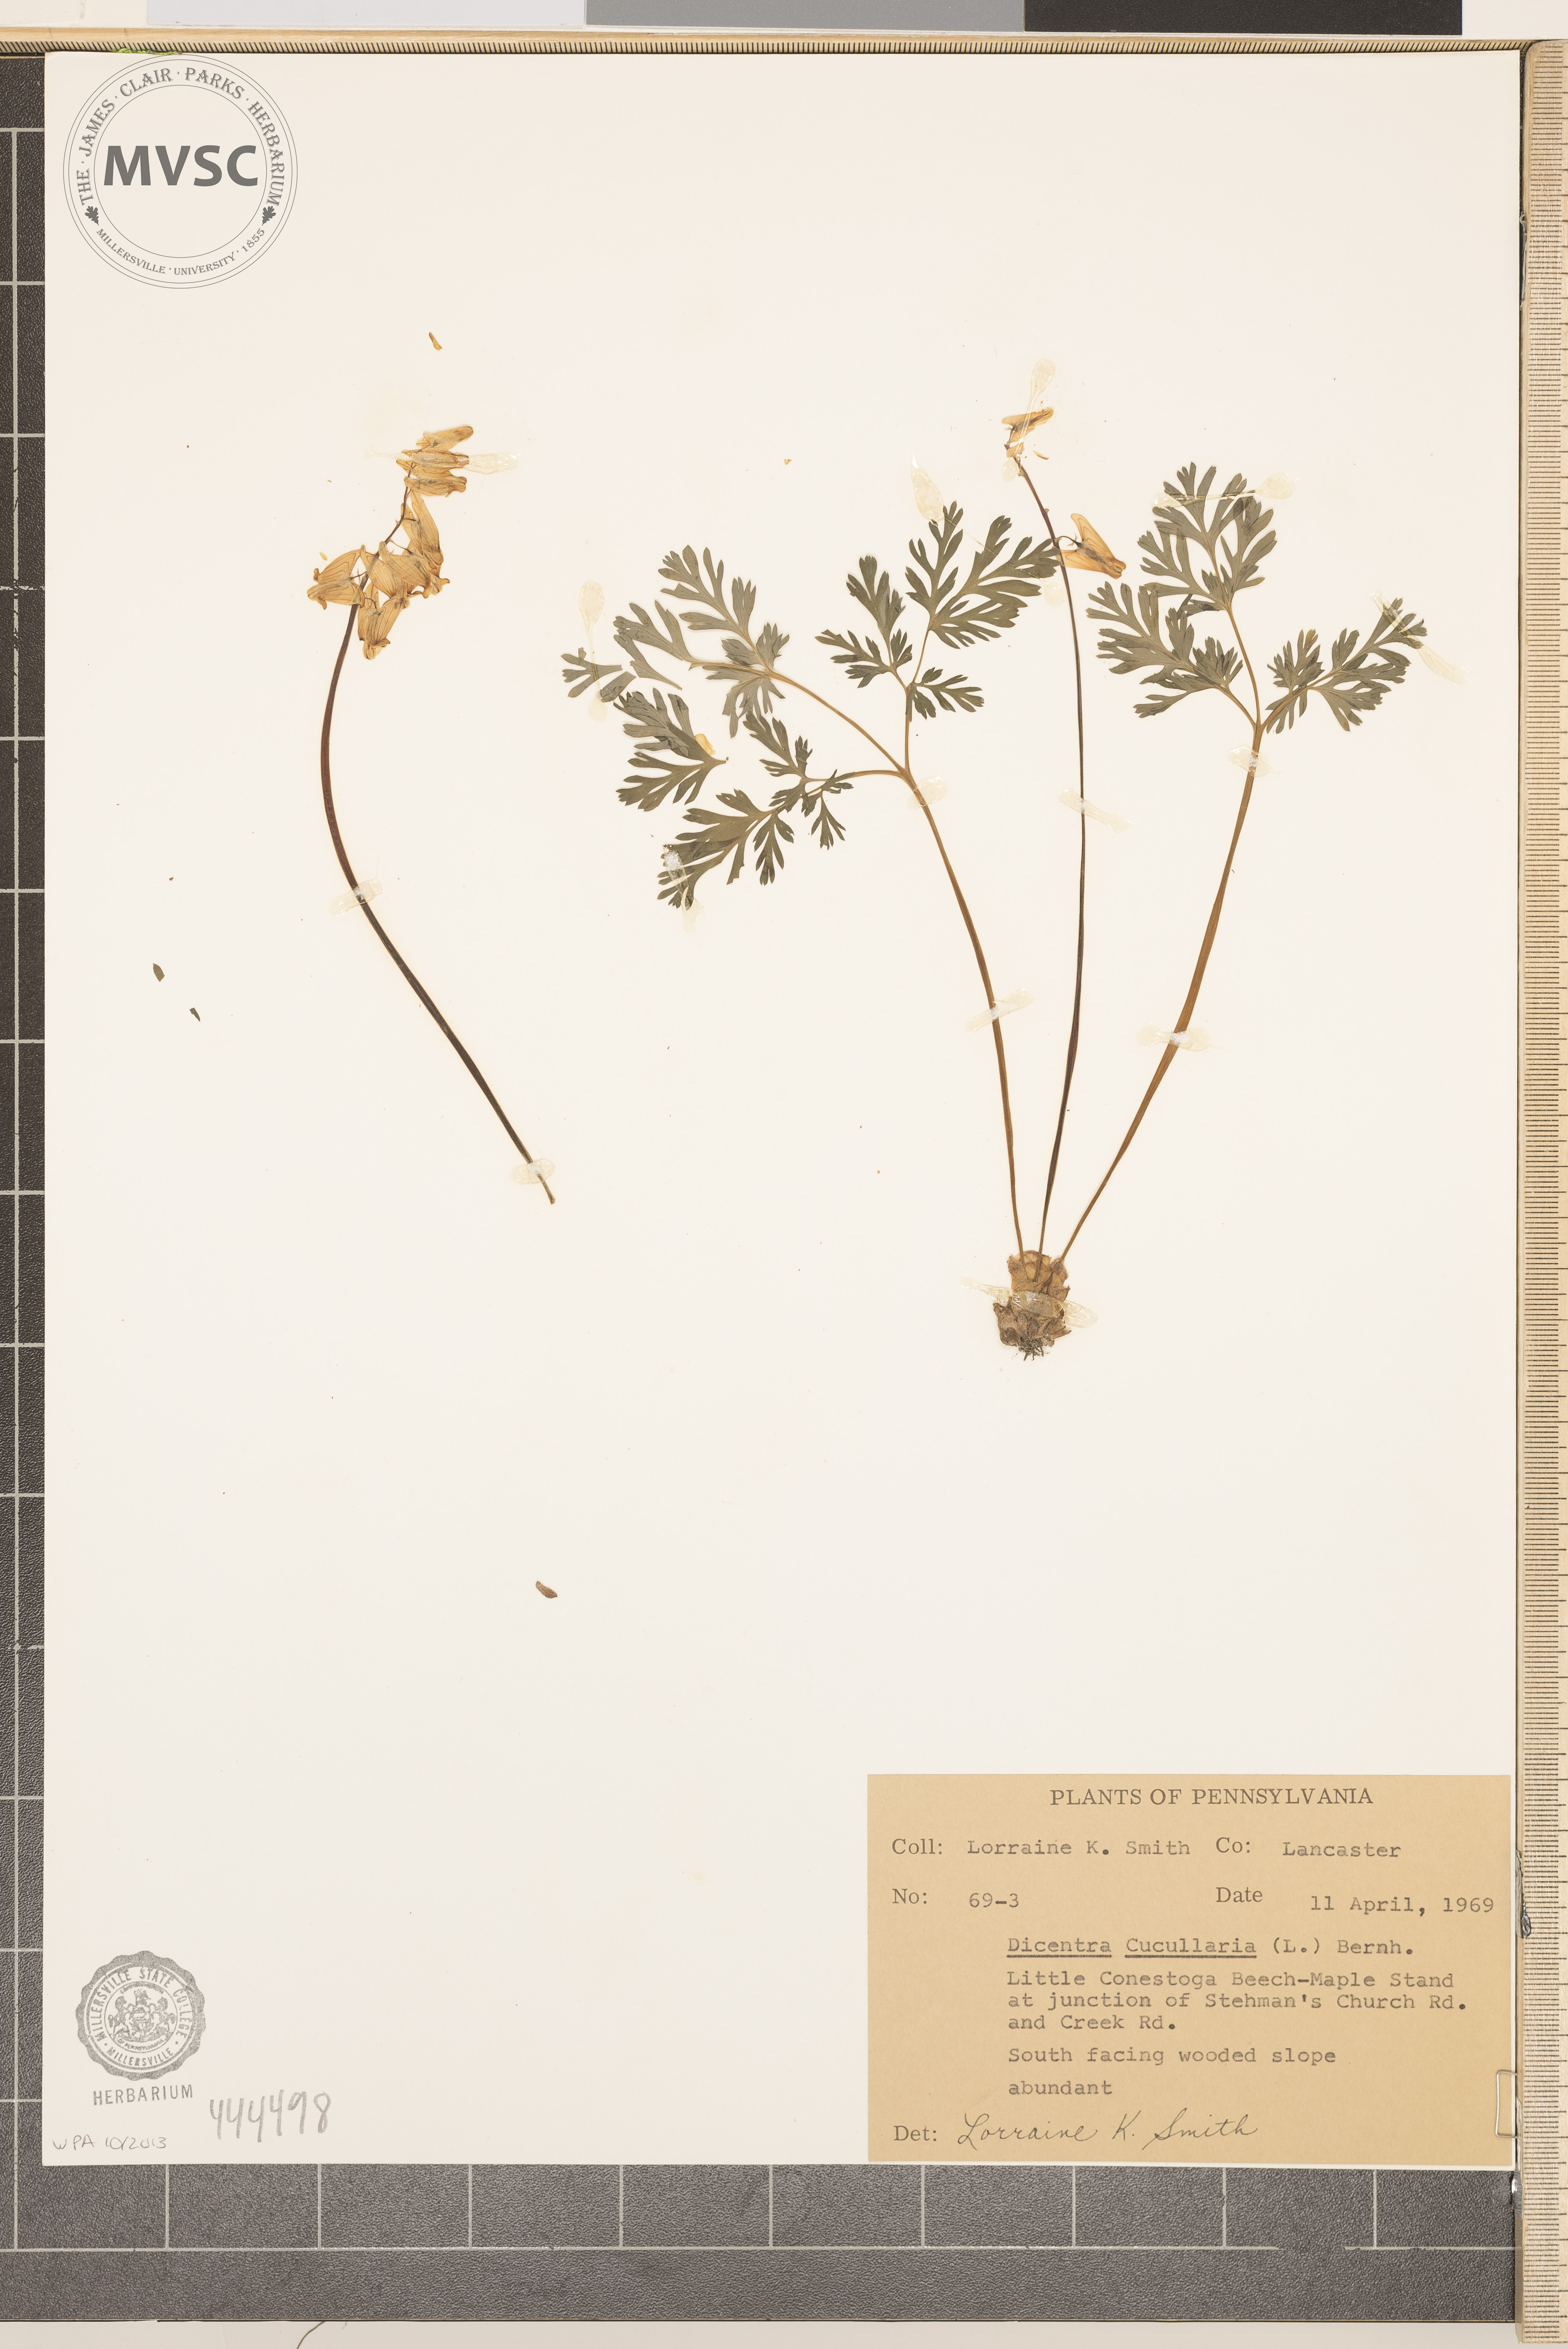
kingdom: Plantae
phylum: Tracheophyta
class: Magnoliopsida
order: Ranunculales
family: Papaveraceae
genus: Dicentra
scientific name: Dicentra cucullaria
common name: Dutchman's breeches
